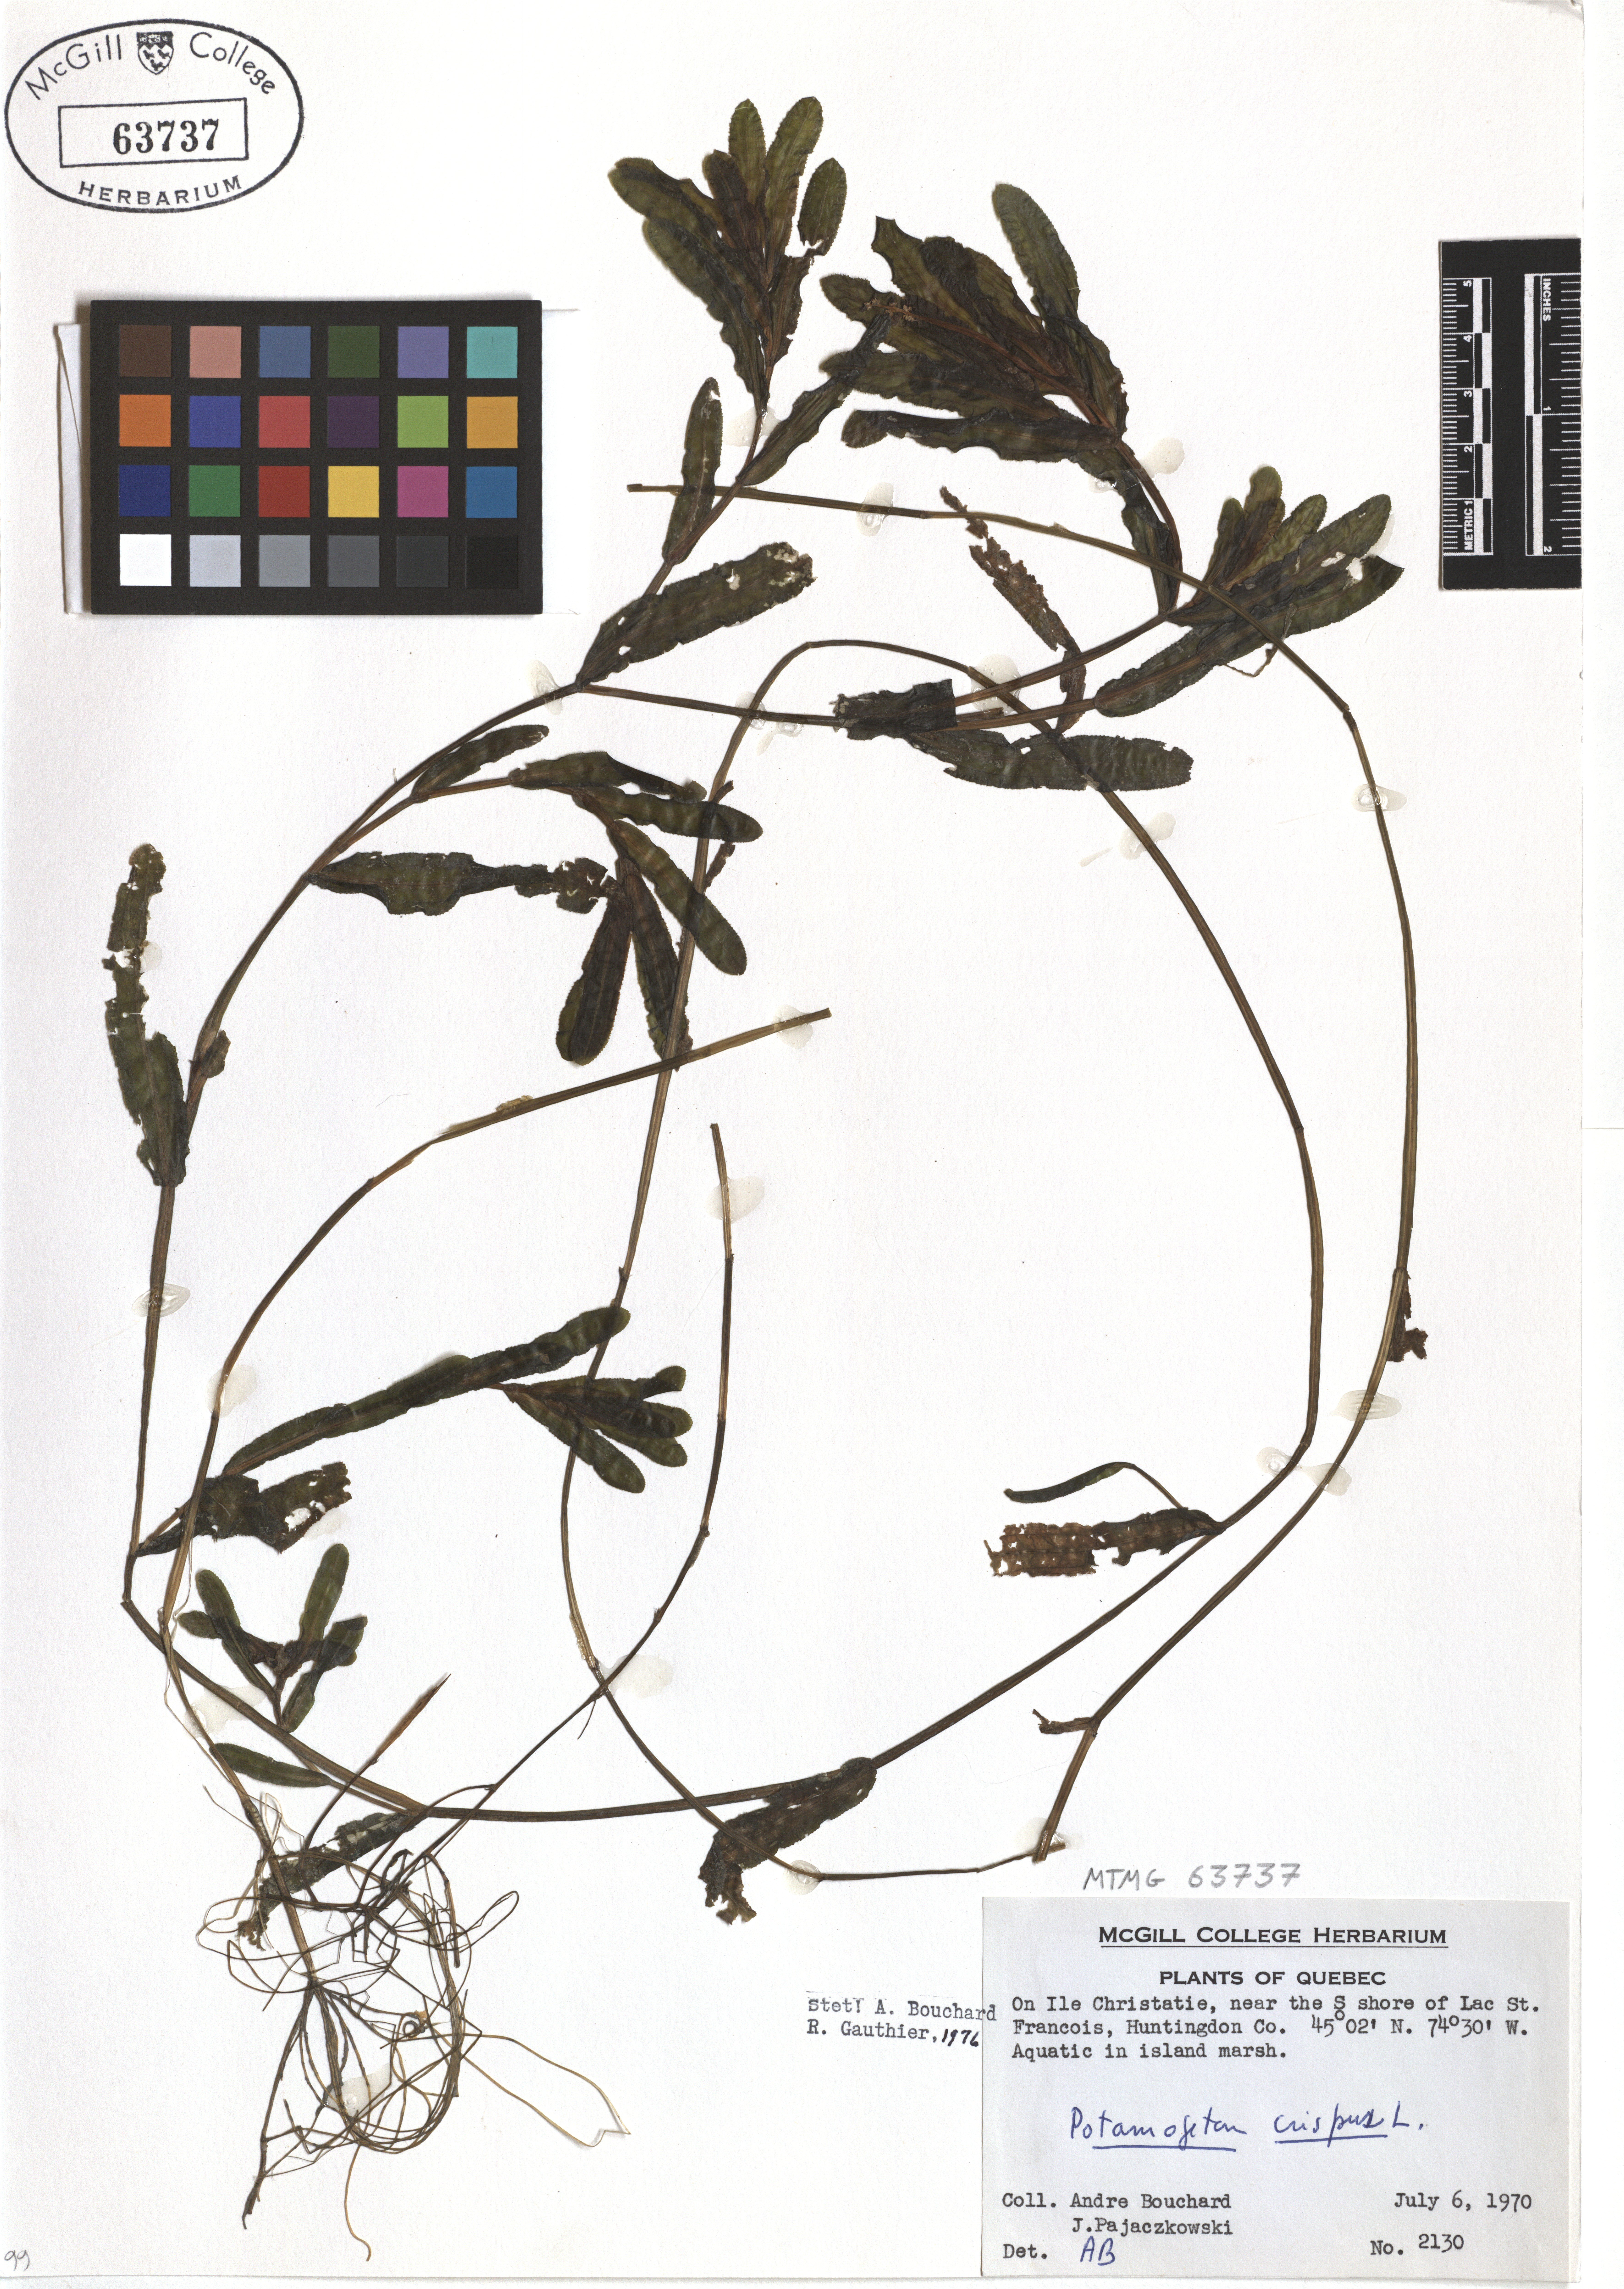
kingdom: Plantae
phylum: Tracheophyta
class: Liliopsida
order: Alismatales
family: Potamogetonaceae
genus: Potamogeton
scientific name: Potamogeton crispus
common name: Curled pondweed
